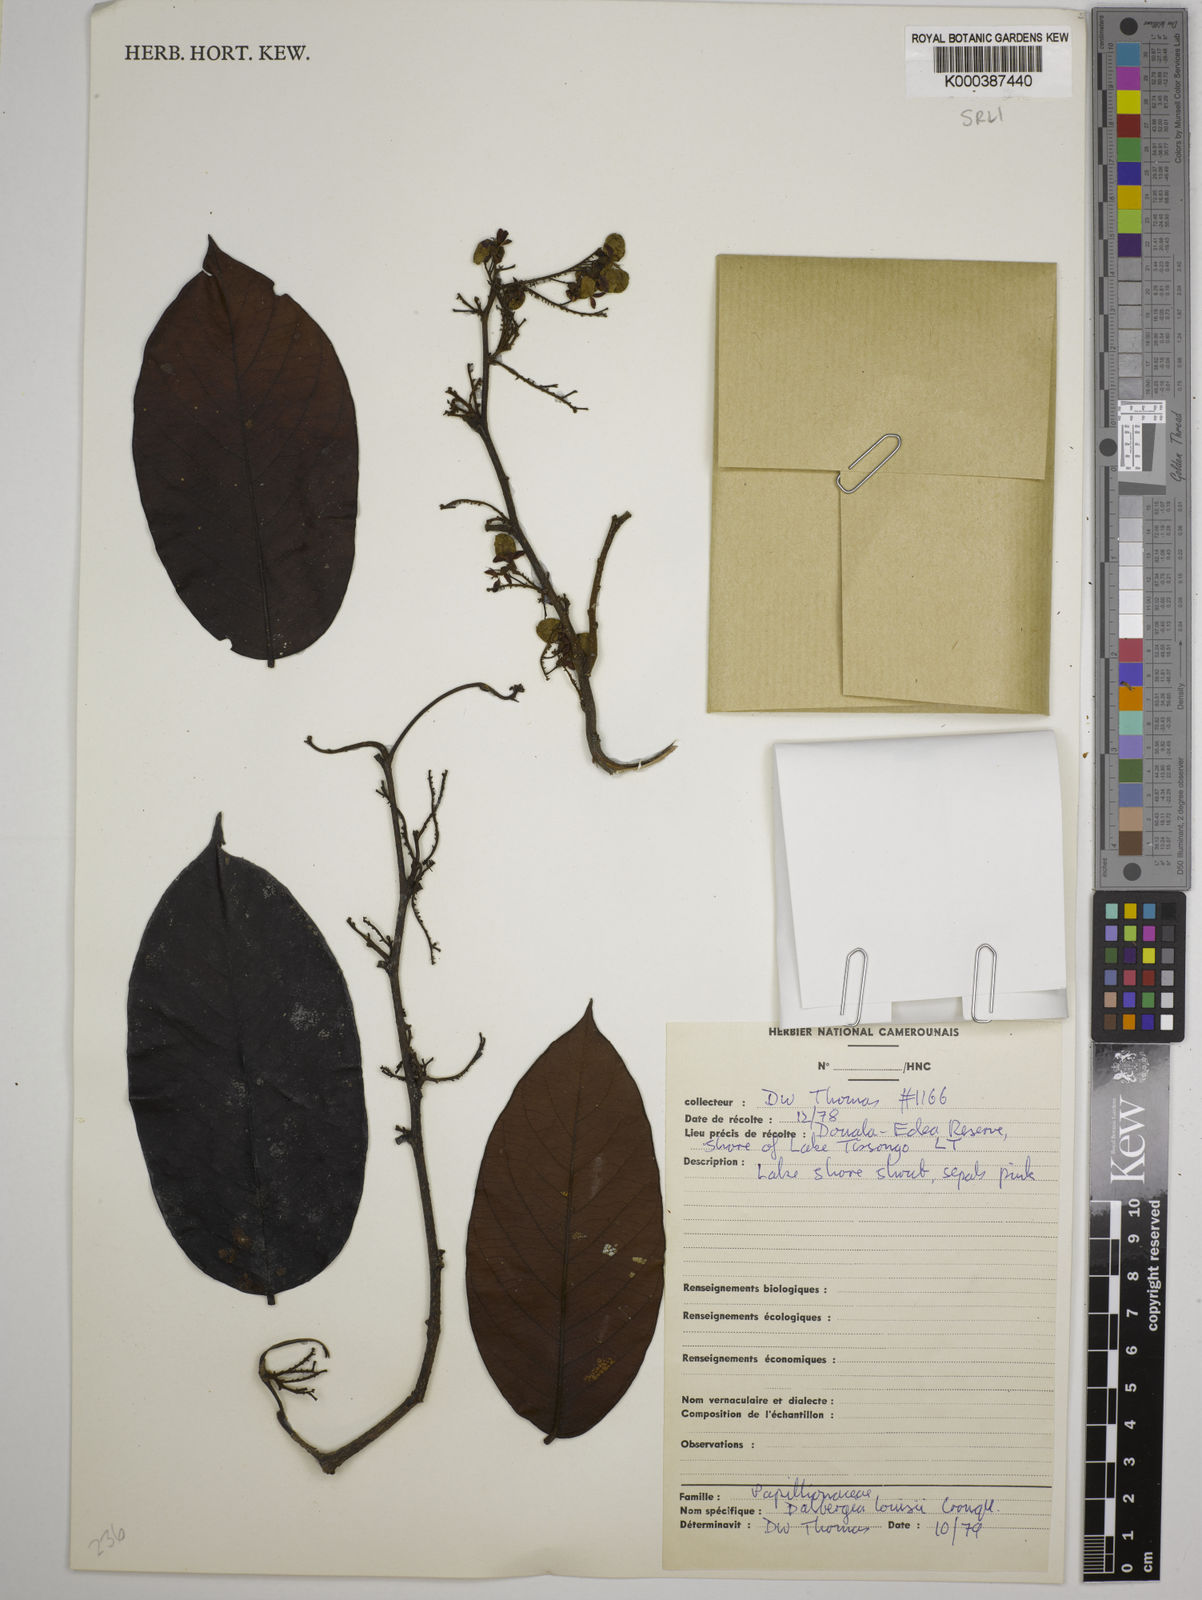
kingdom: Plantae
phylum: Tracheophyta
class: Magnoliopsida
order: Fabales
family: Fabaceae
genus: Dalbergia
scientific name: Dalbergia louisii
